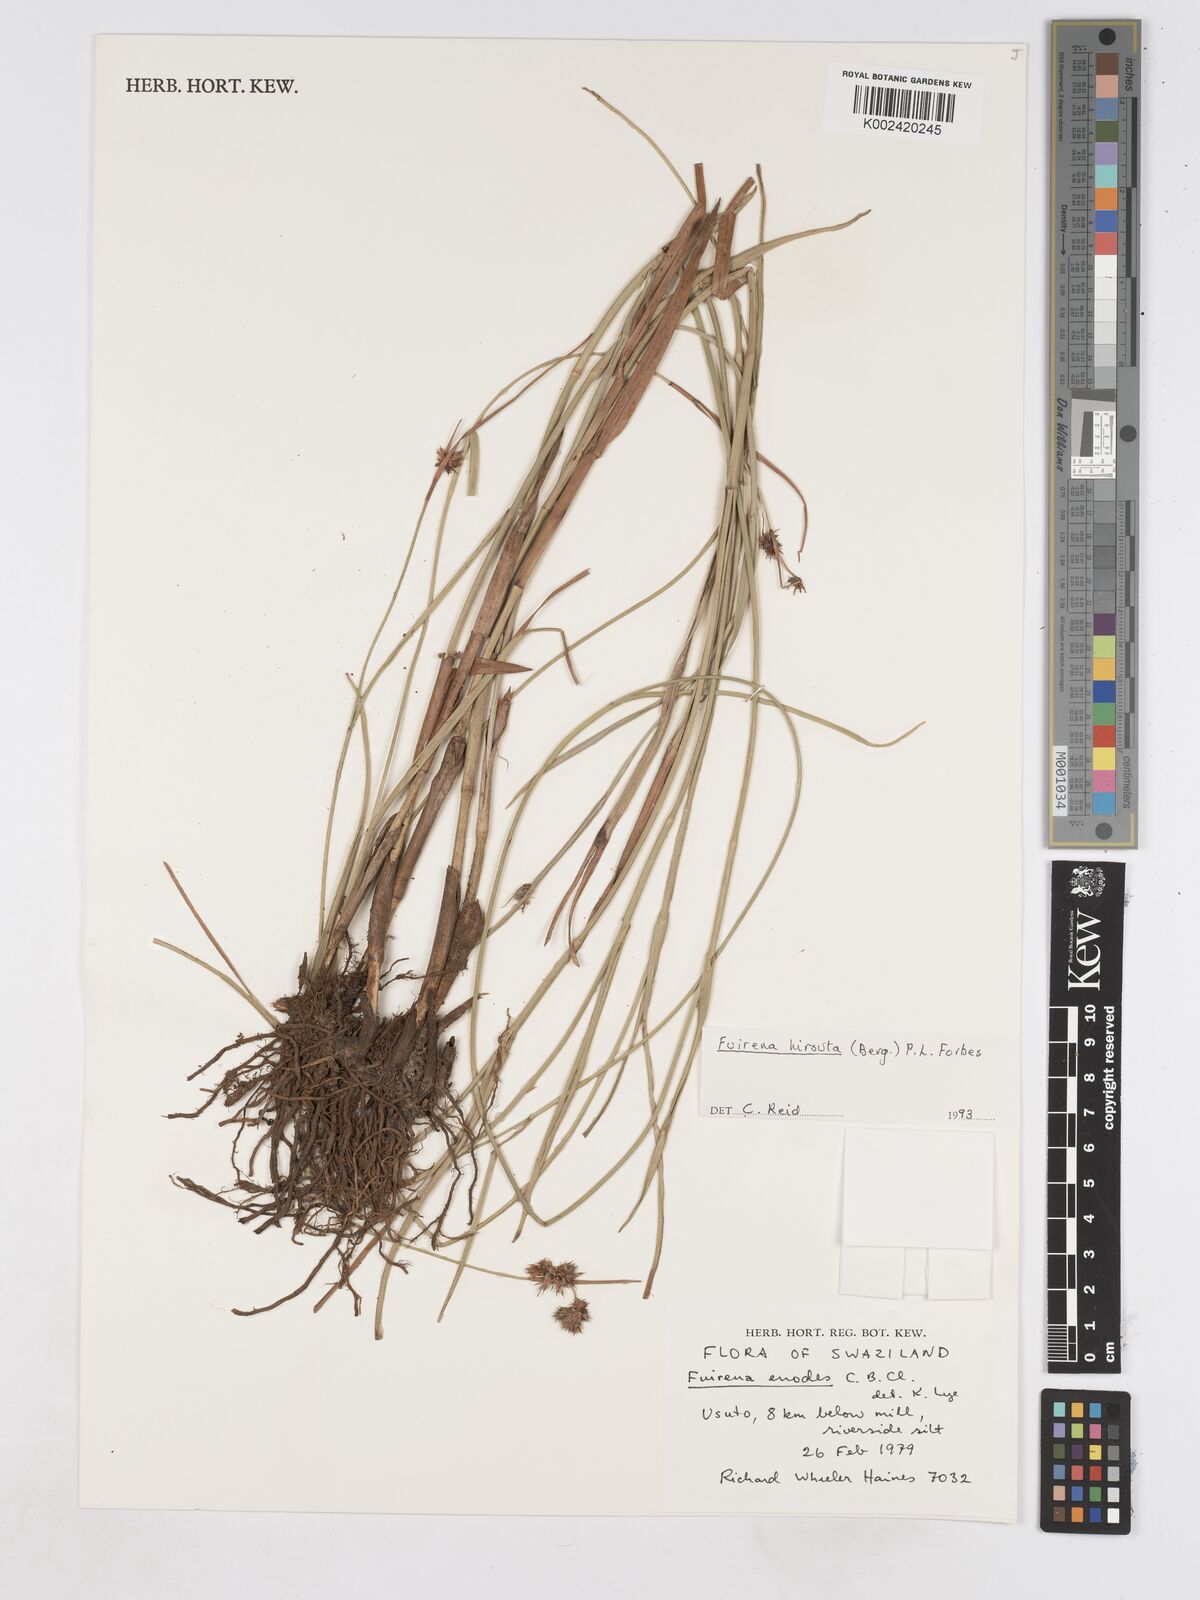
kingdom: Plantae
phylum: Tracheophyta
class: Liliopsida
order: Poales
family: Cyperaceae
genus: Fuirena
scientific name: Fuirena hirsuta
